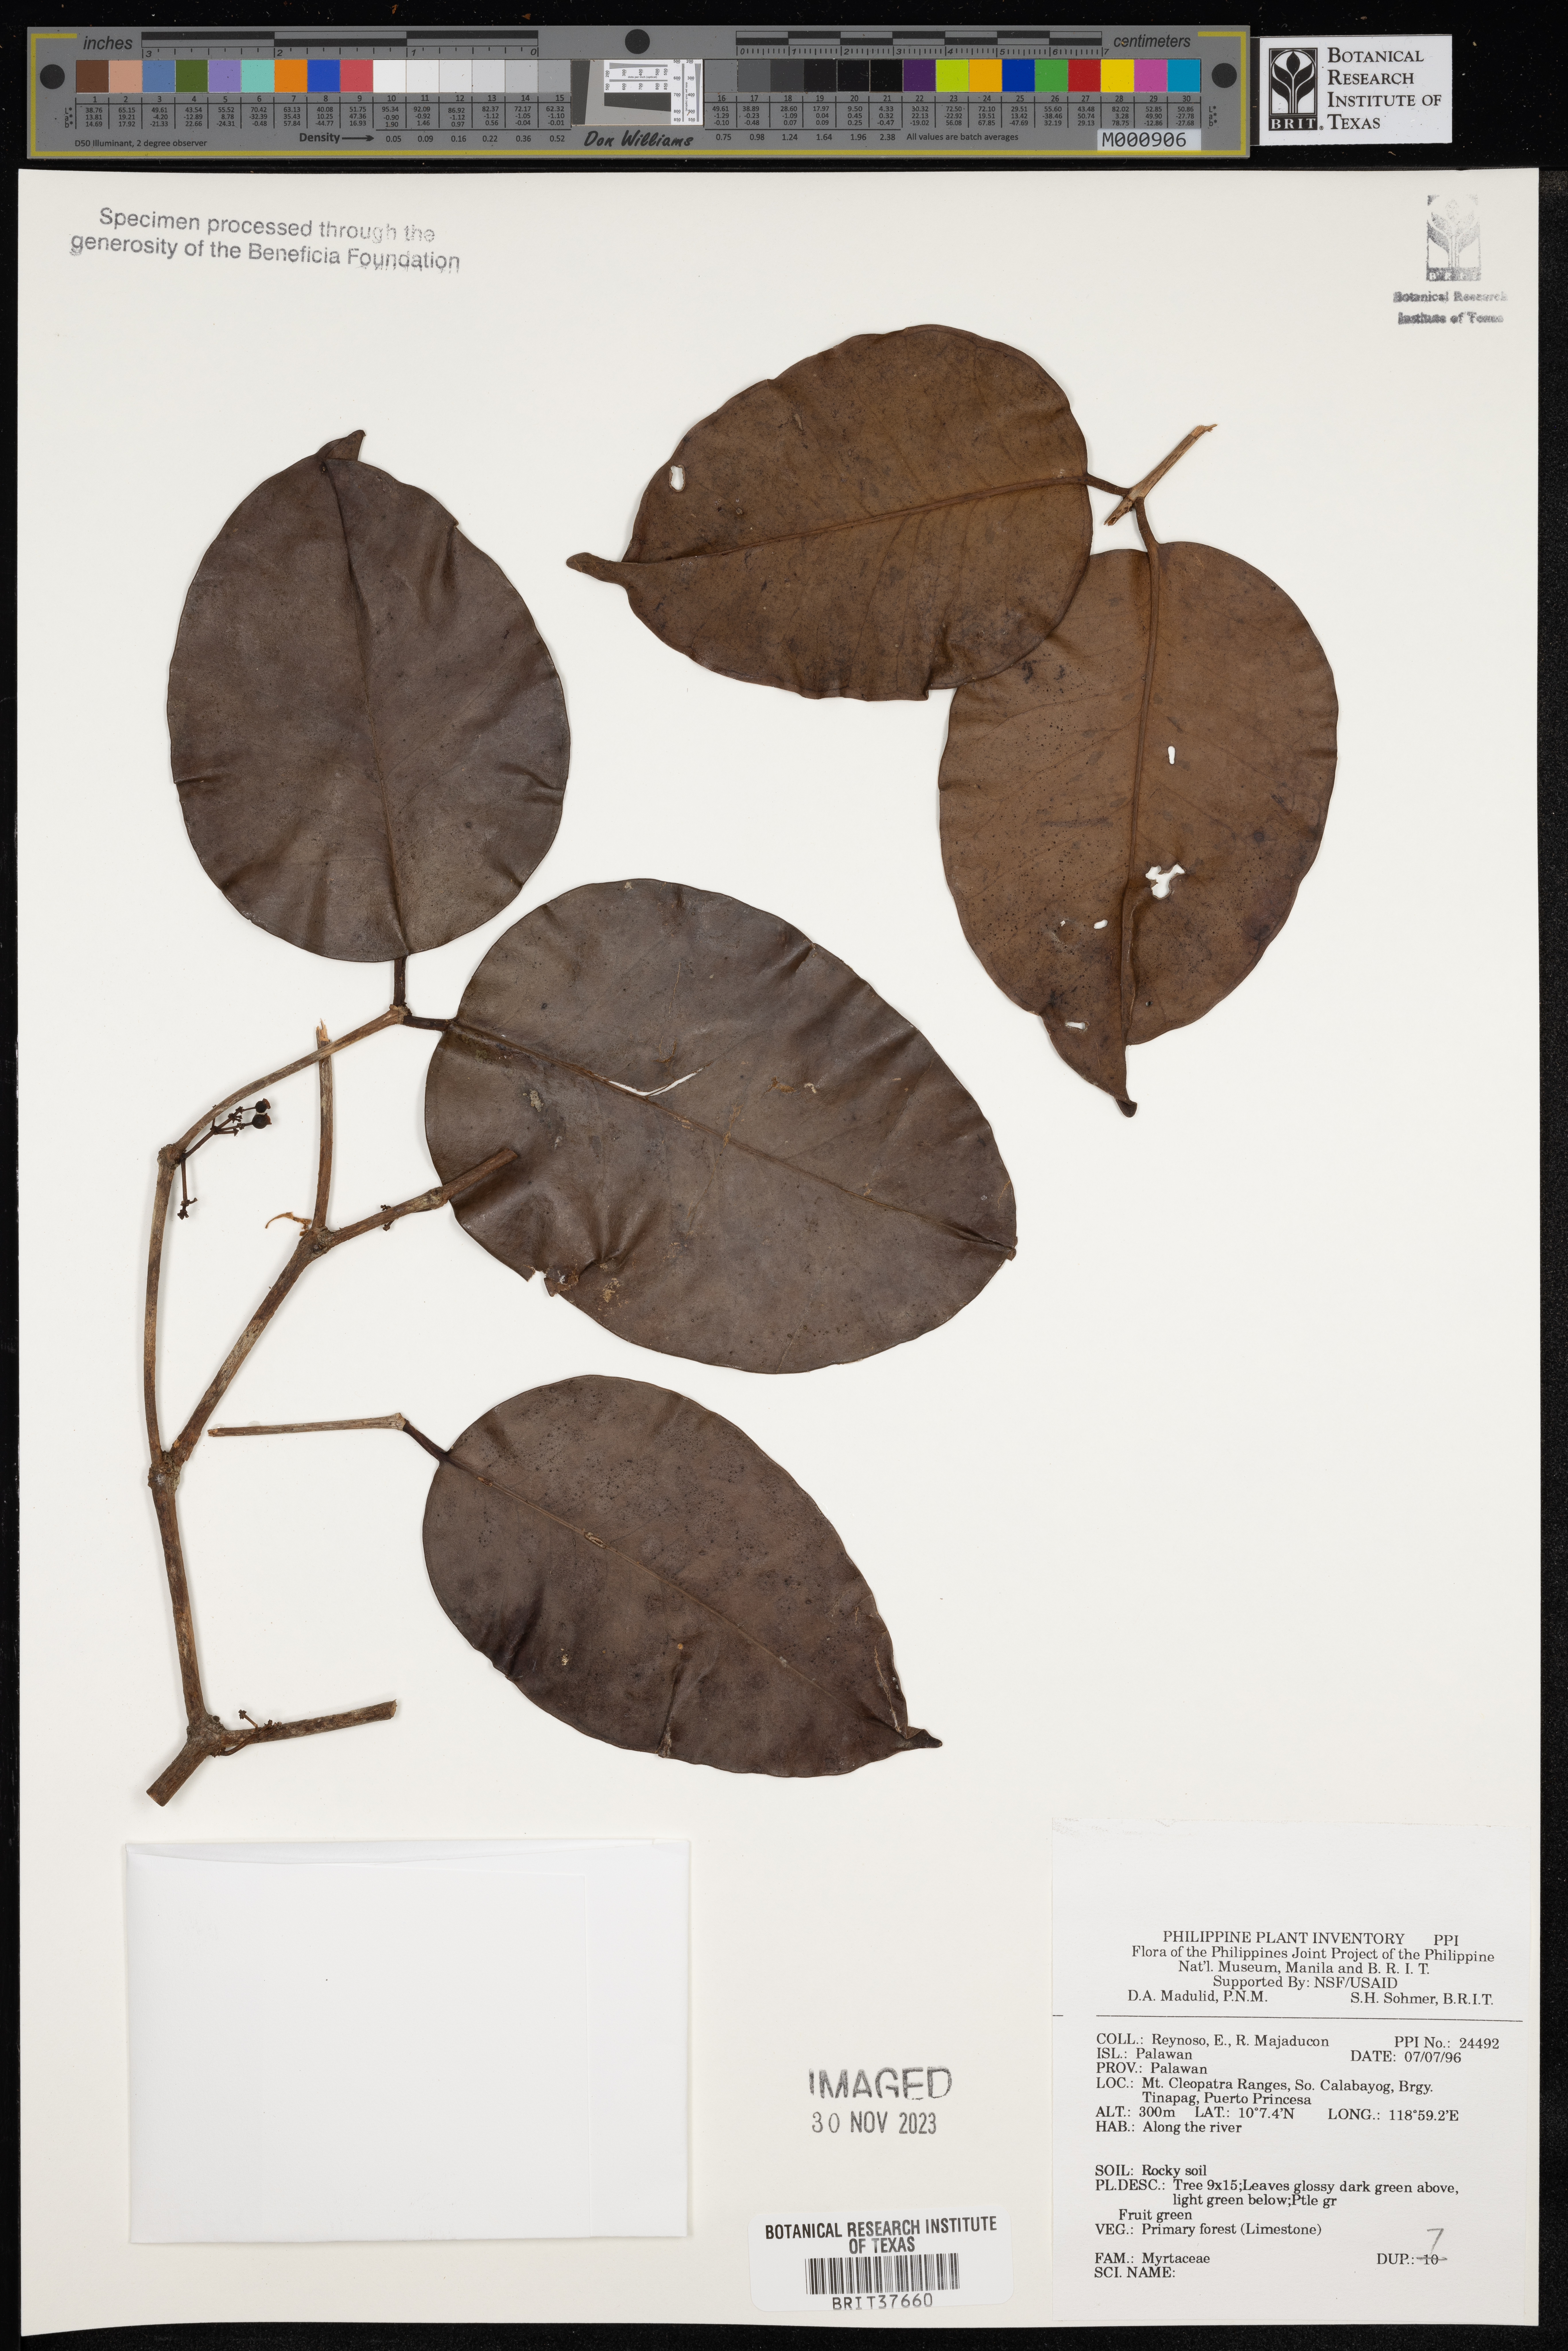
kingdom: Plantae
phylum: Tracheophyta
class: Magnoliopsida
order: Myrtales
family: Myrtaceae
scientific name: Myrtaceae
